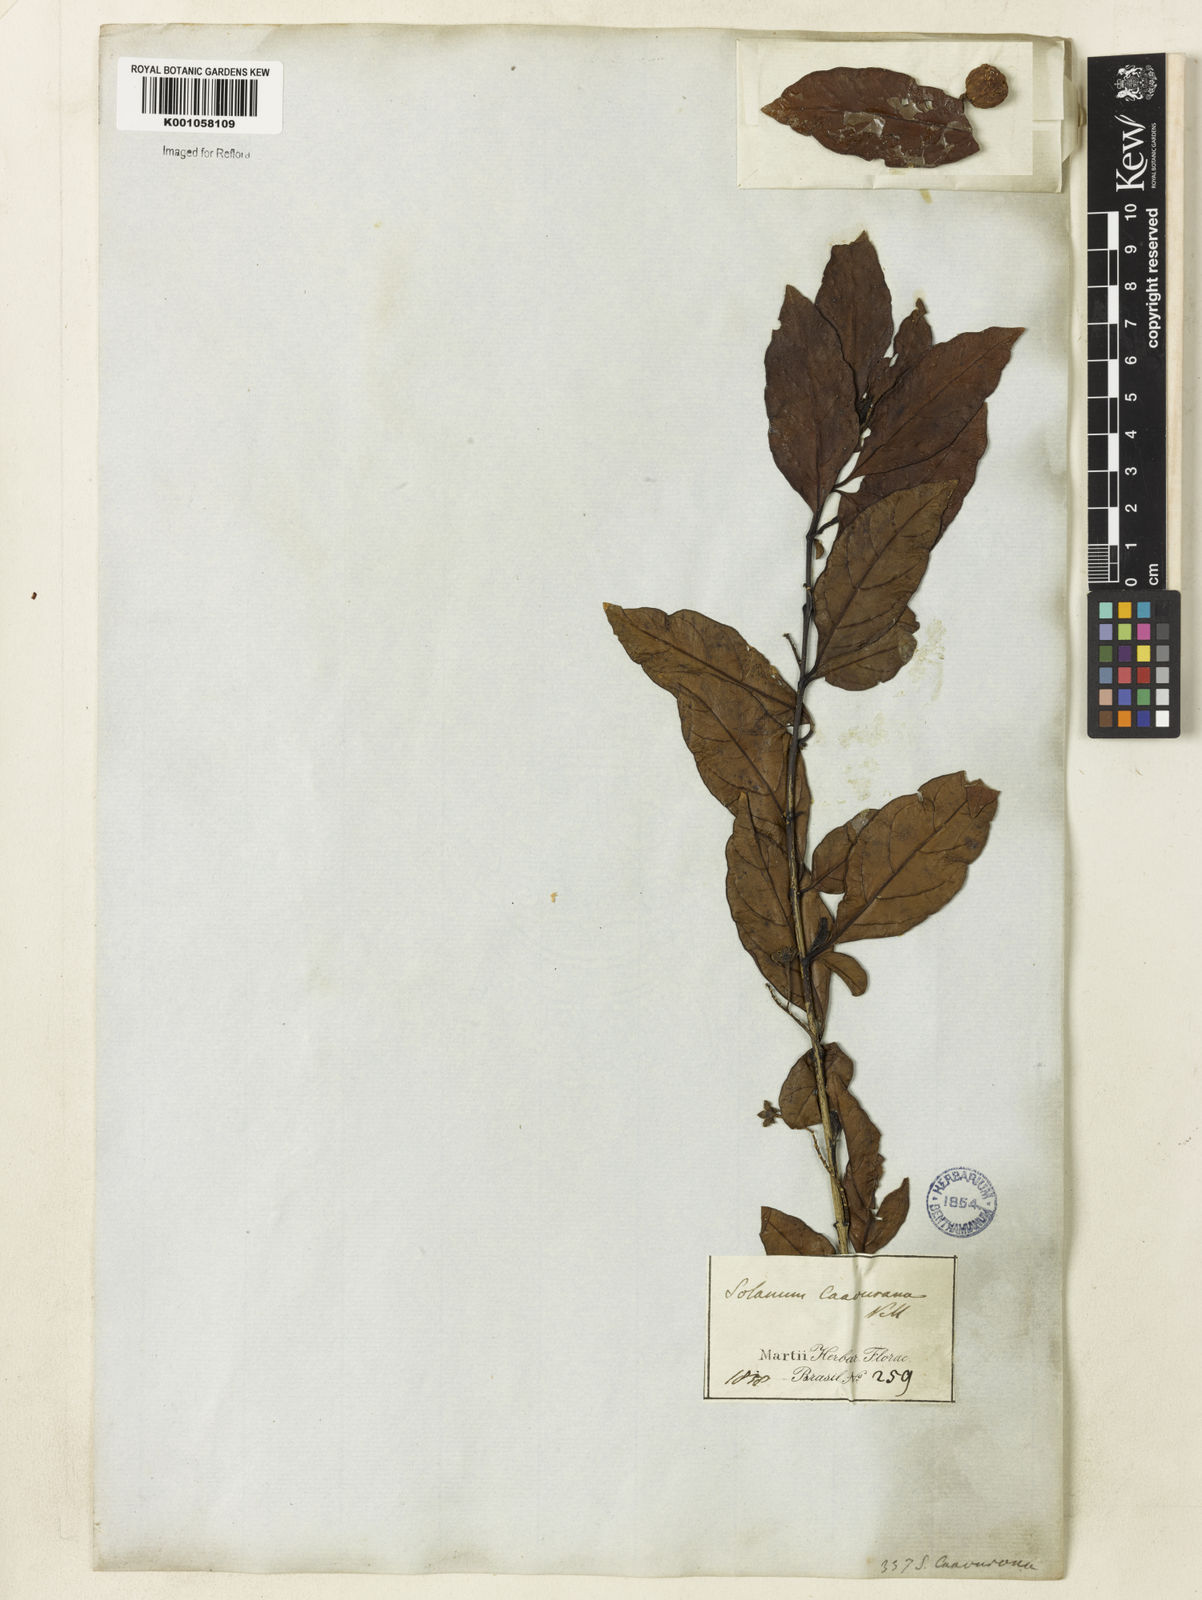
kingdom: Plantae
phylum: Tracheophyta
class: Magnoliopsida
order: Solanales
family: Solanaceae
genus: Solanum
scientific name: Solanum caavurana
